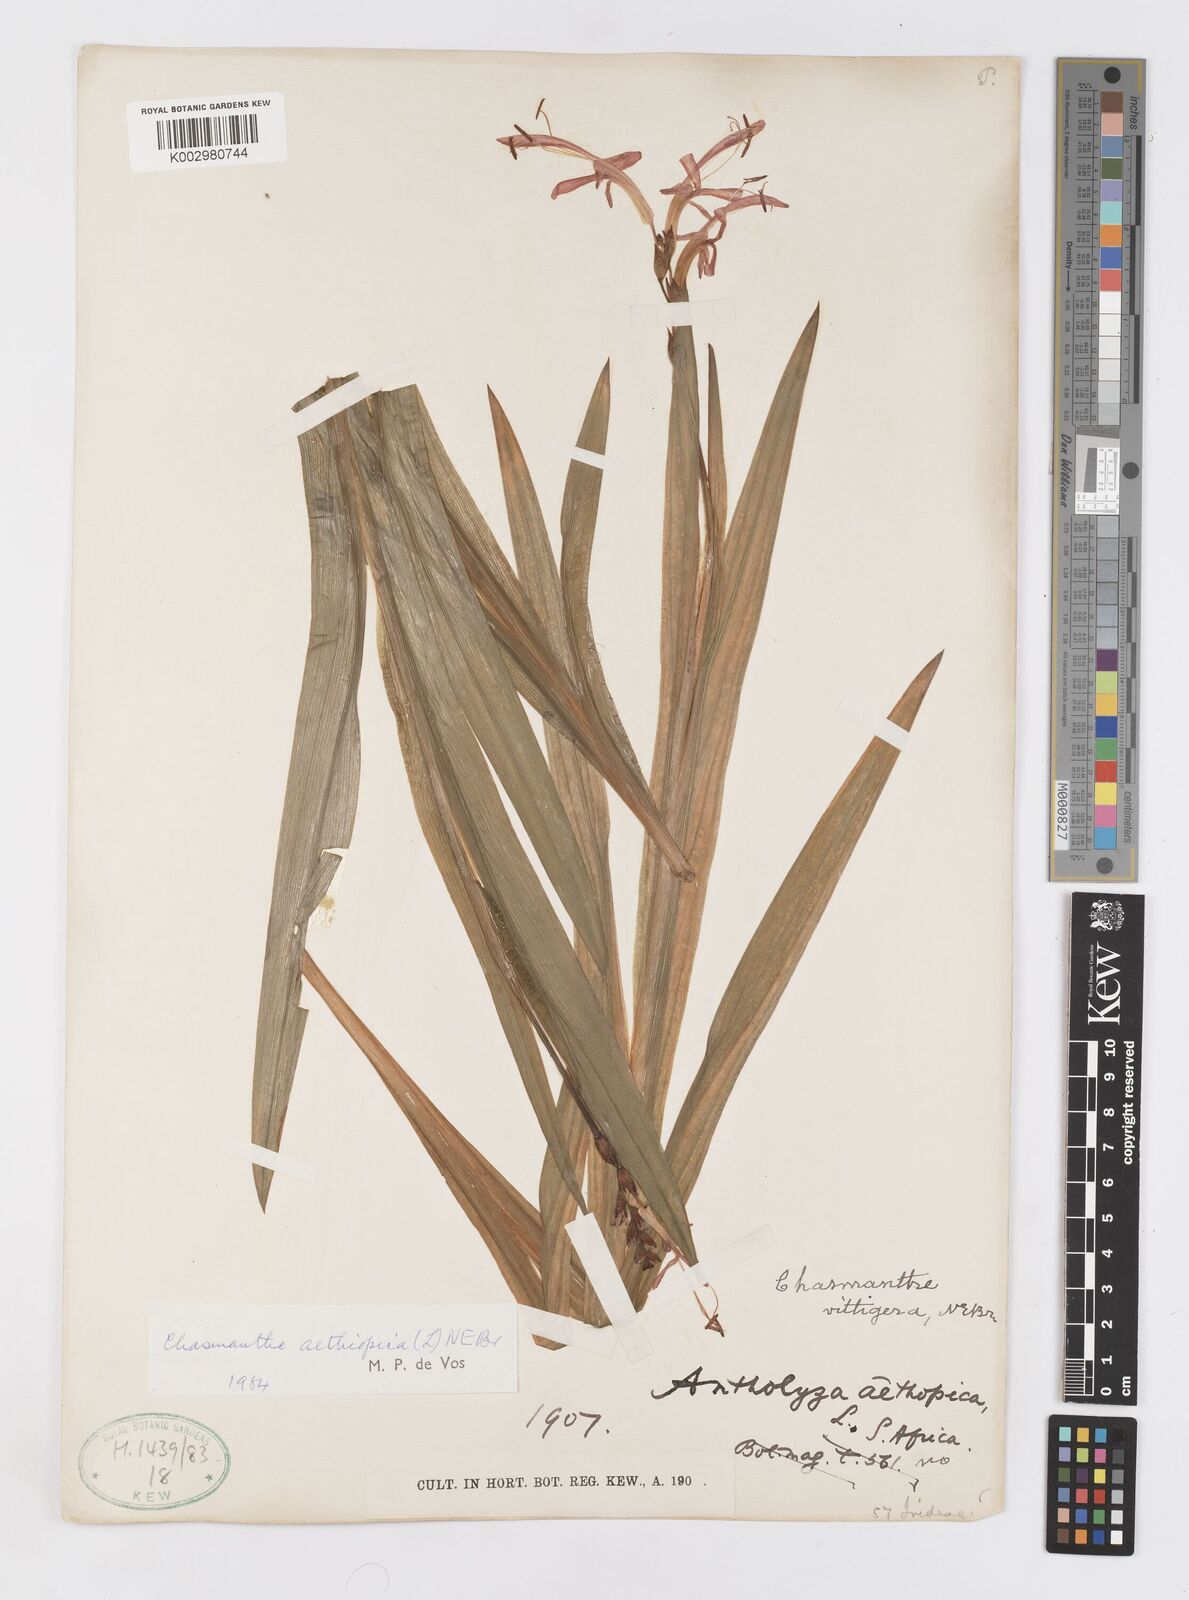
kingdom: Plantae
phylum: Tracheophyta
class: Liliopsida
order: Asparagales
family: Iridaceae
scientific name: Iridaceae
